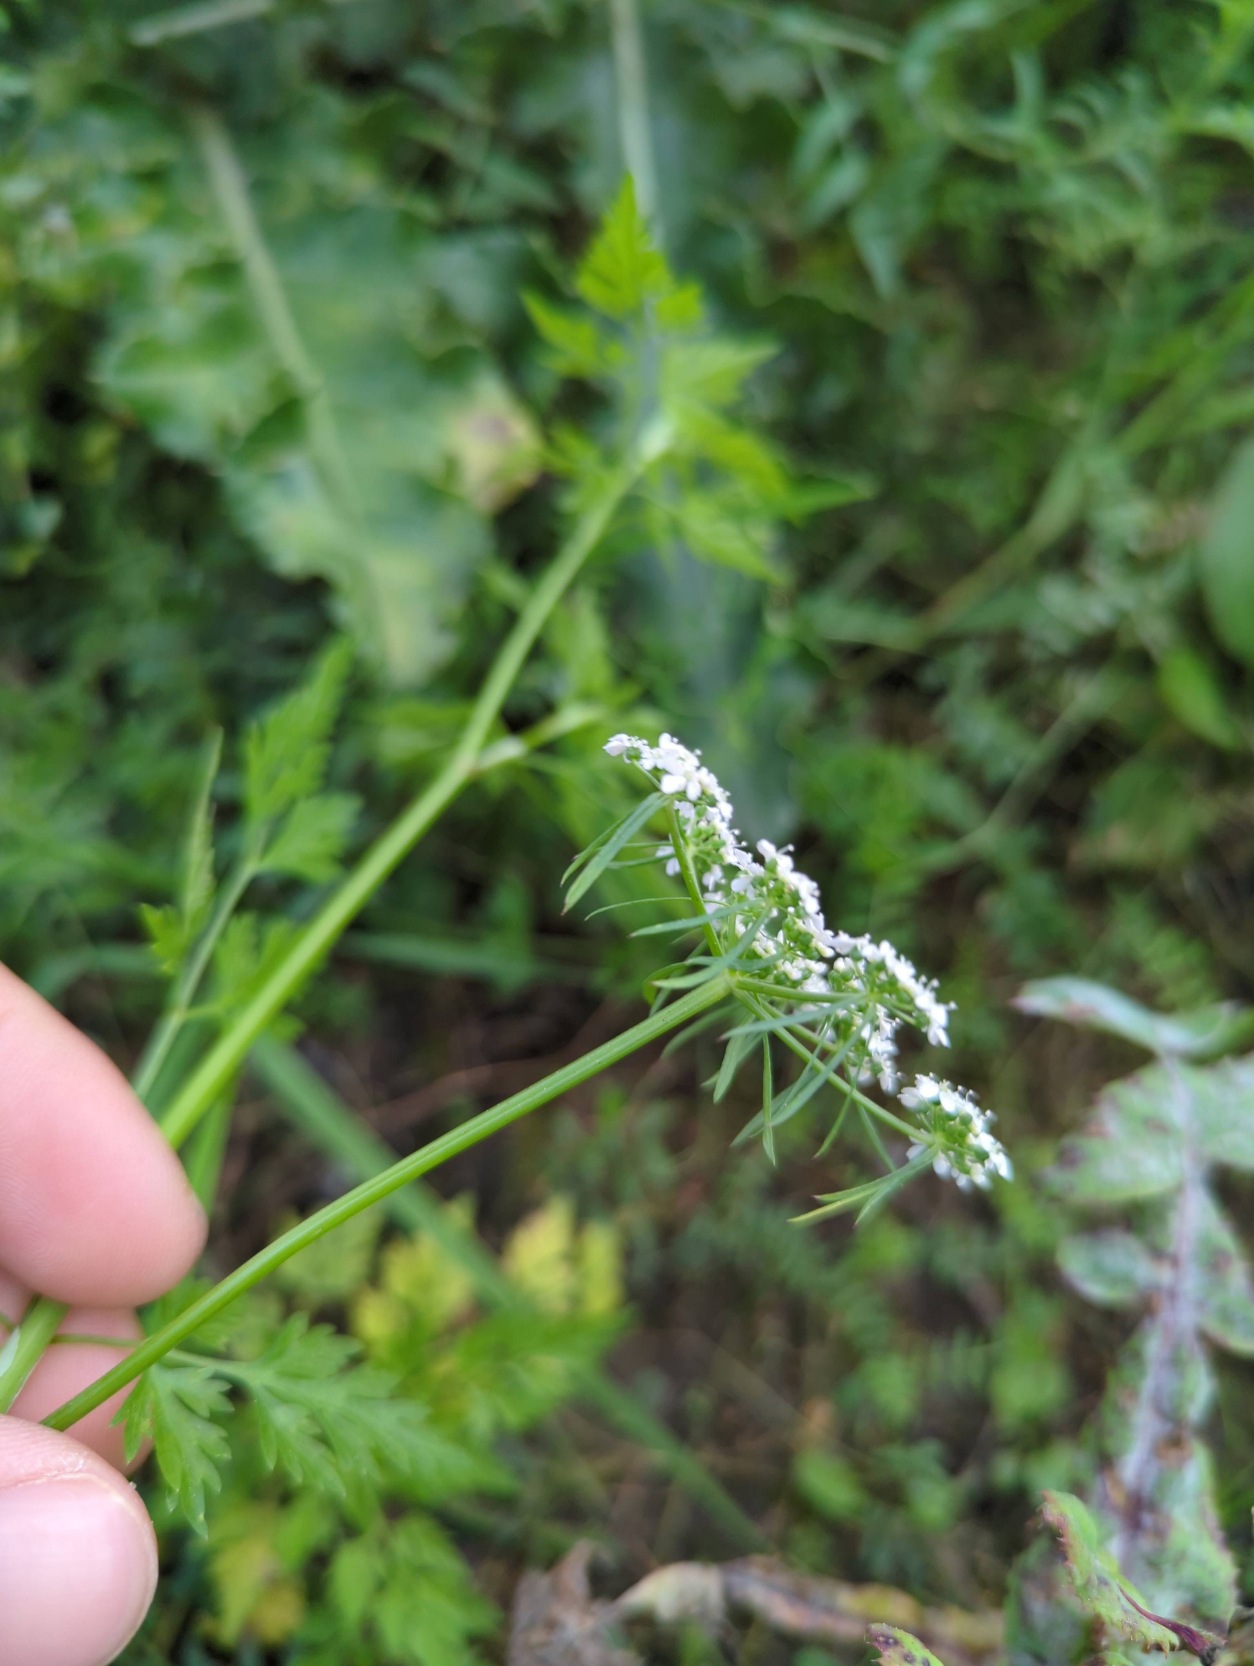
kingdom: Plantae
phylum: Tracheophyta
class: Magnoliopsida
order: Apiales
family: Apiaceae
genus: Aethusa
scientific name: Aethusa cynapium
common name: Hundepersille
